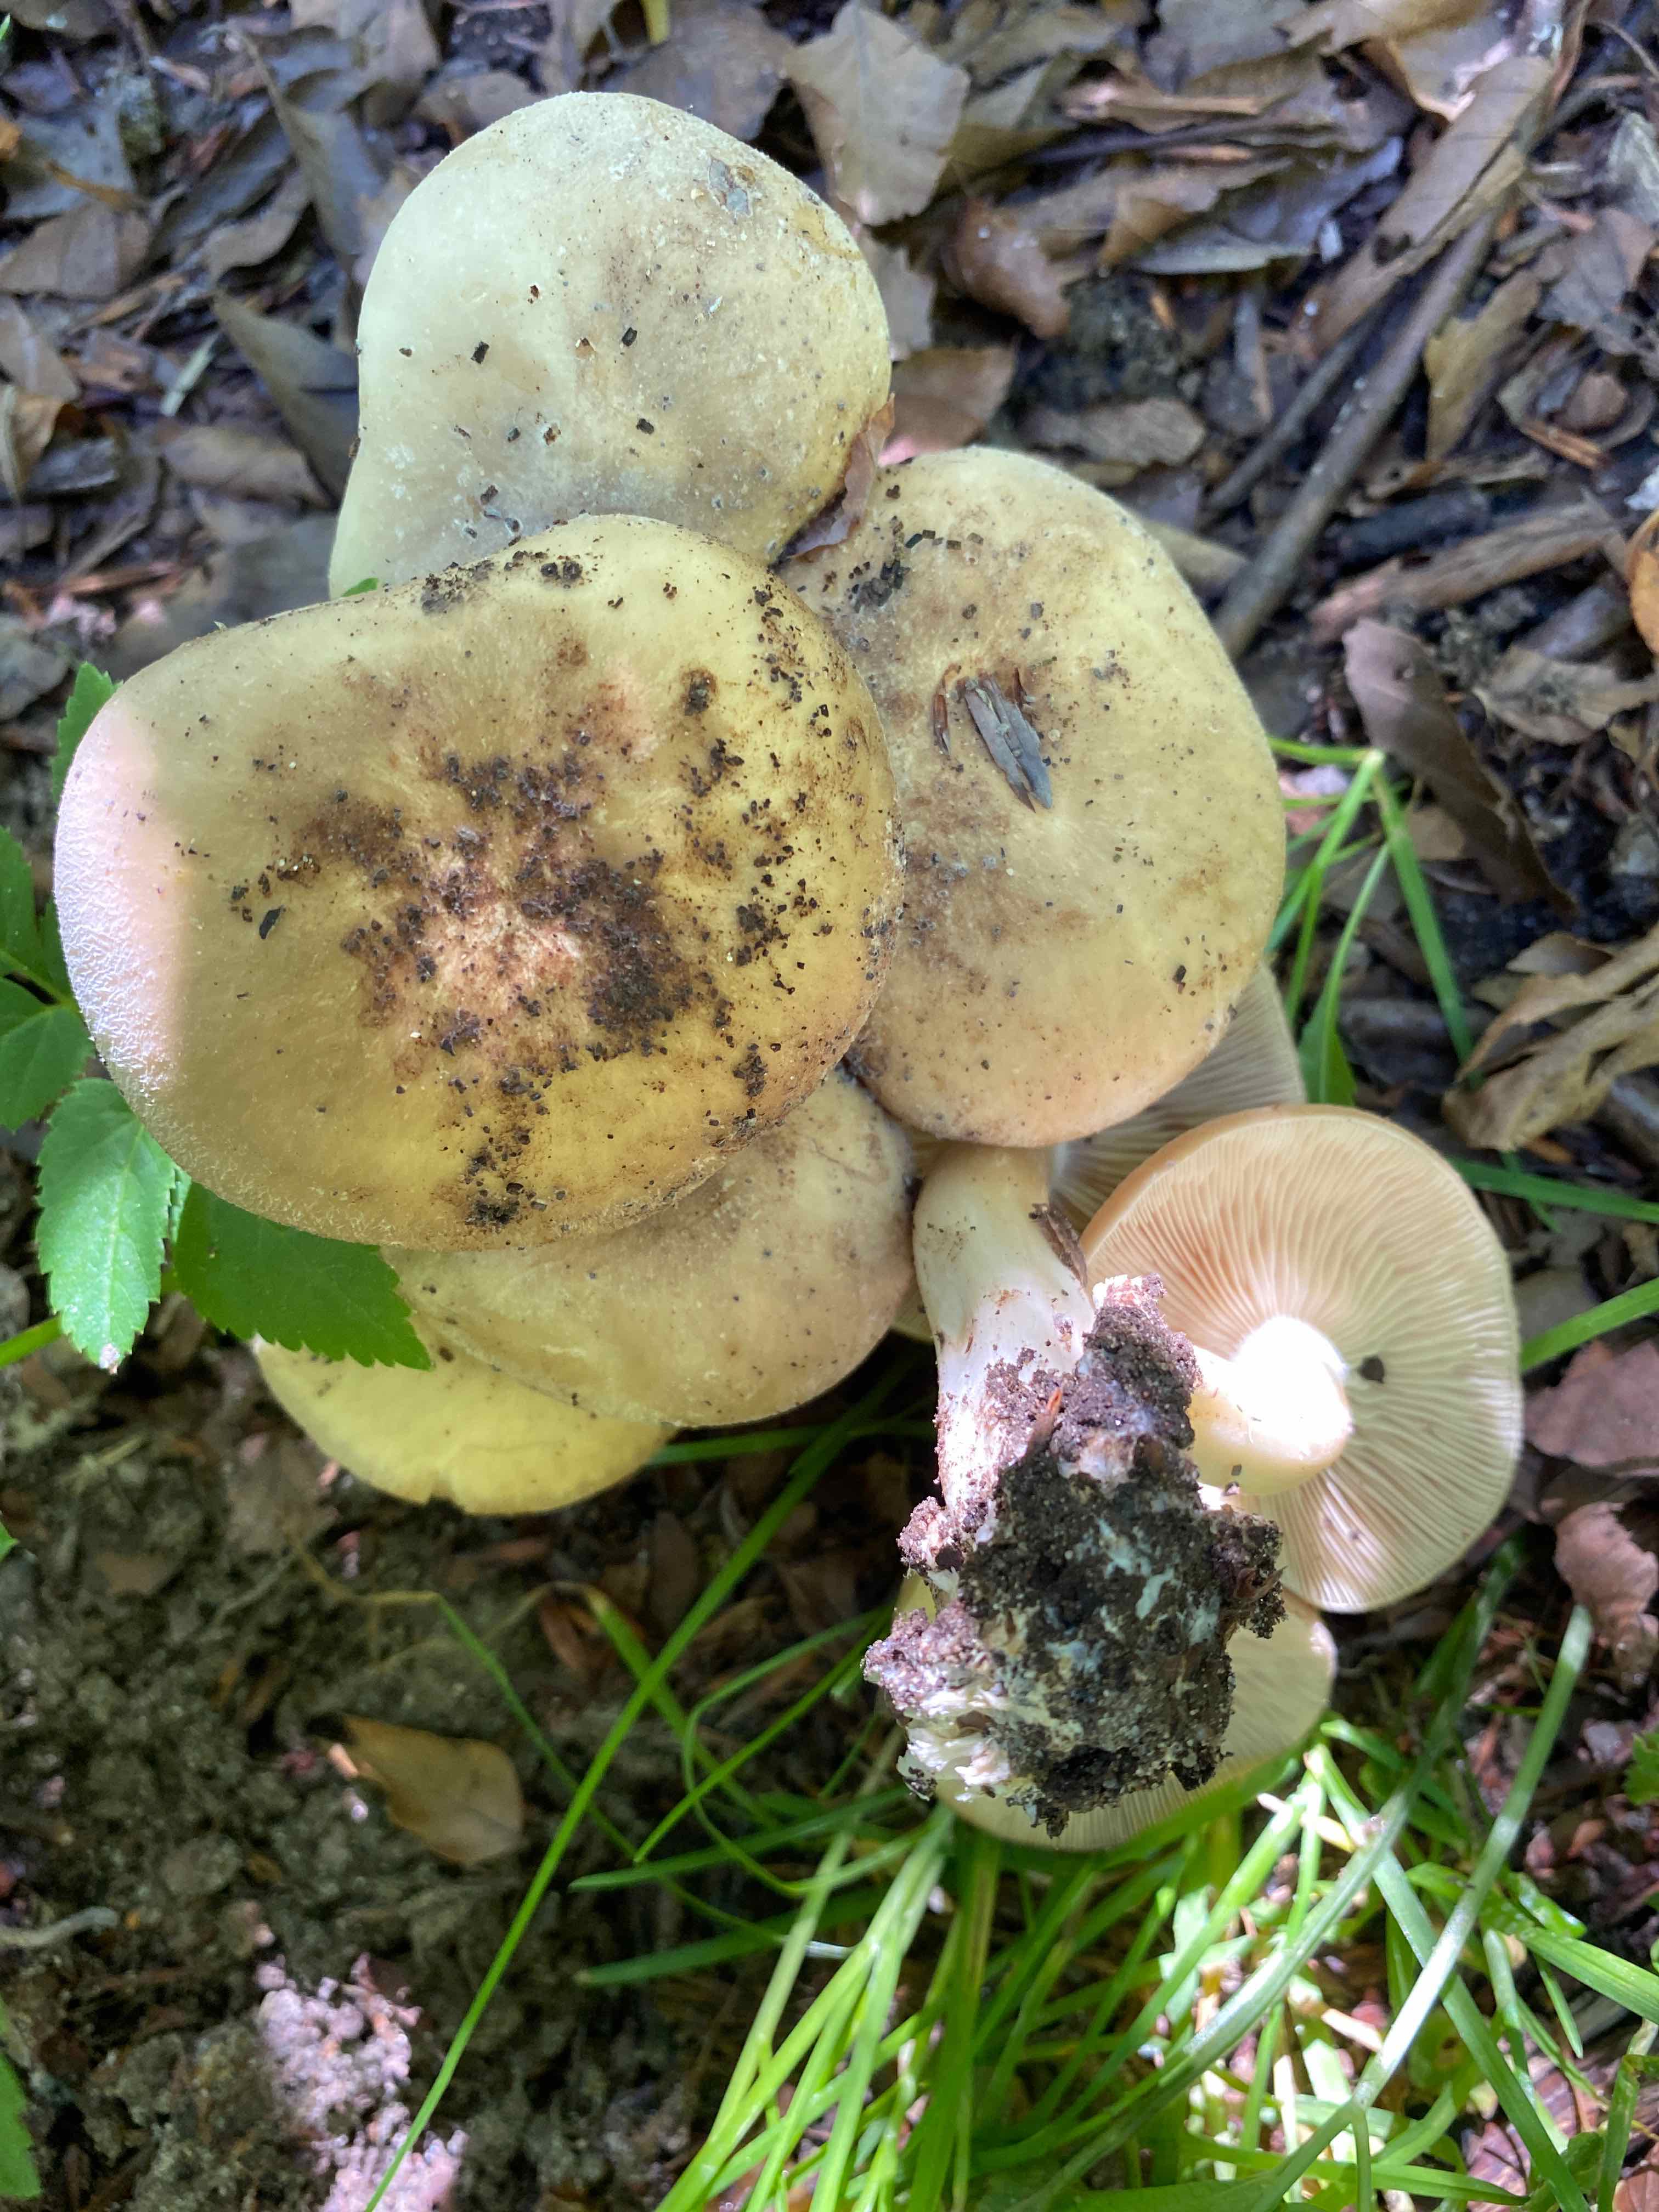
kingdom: Fungi
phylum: Basidiomycota
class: Agaricomycetes
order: Agaricales
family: Lyophyllaceae
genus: Lyophyllum
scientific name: Lyophyllum
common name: gråblad
